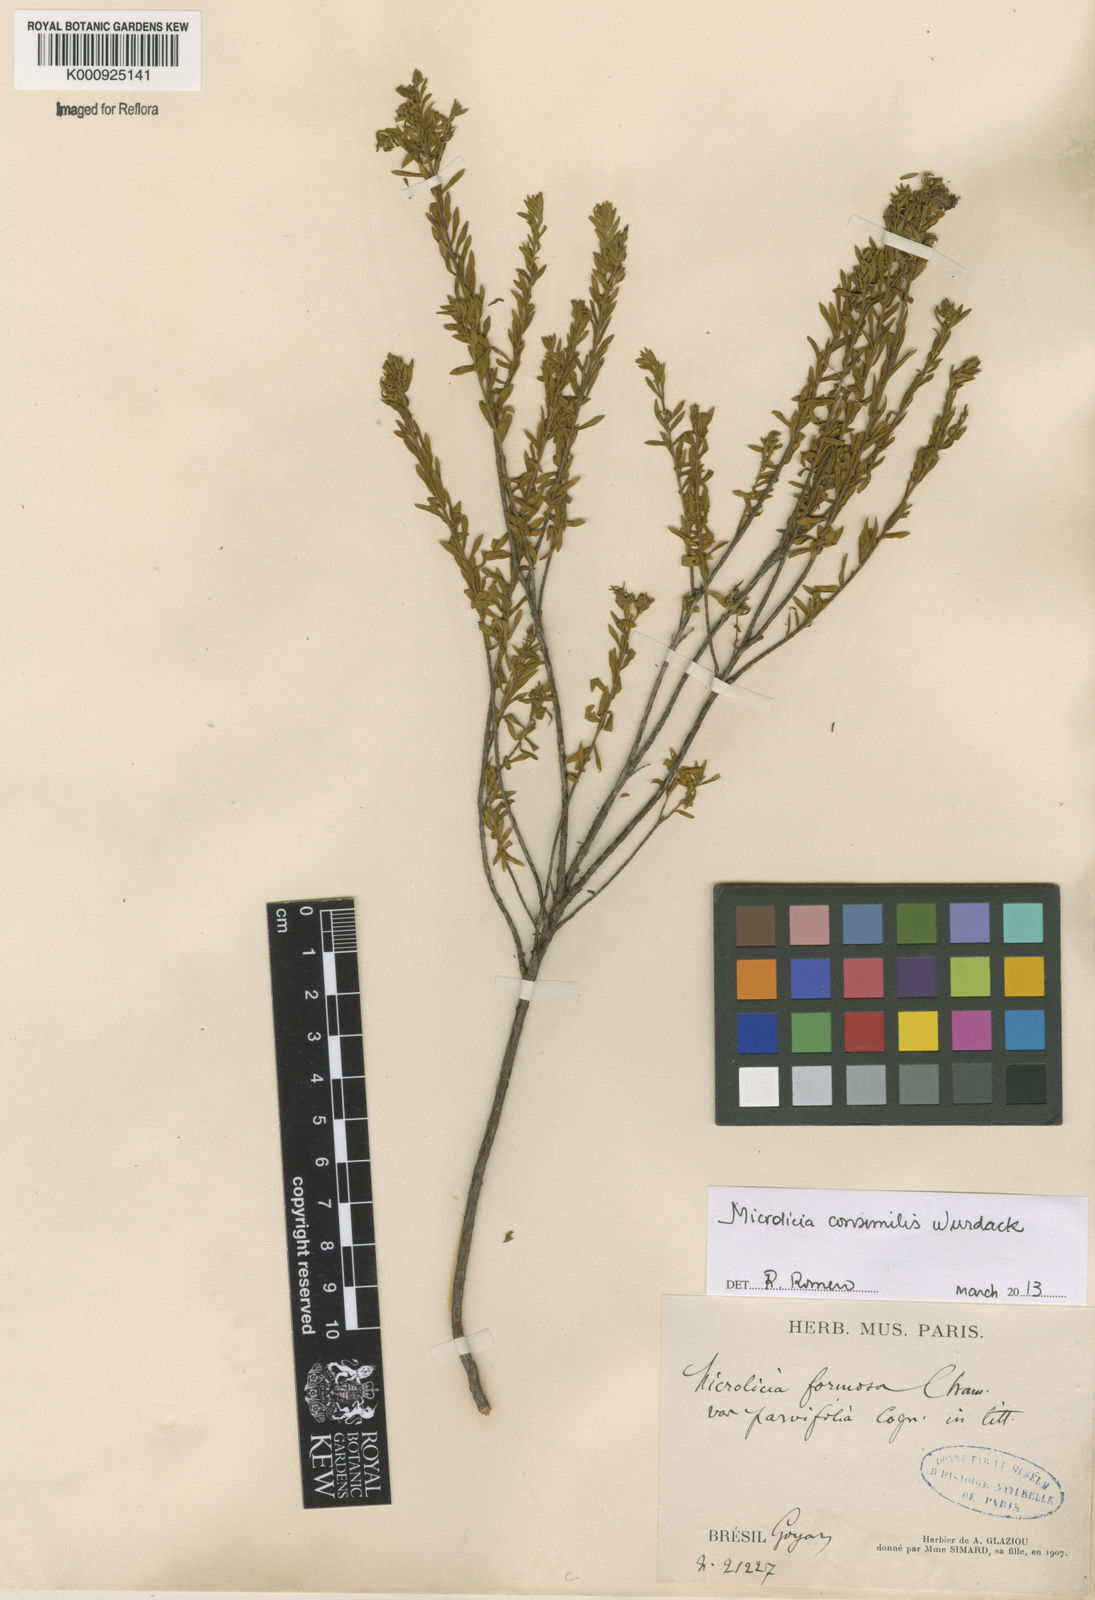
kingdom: Plantae
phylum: Tracheophyta
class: Magnoliopsida
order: Myrtales
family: Melastomataceae
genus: Microlicia
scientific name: Microlicia consimilis
